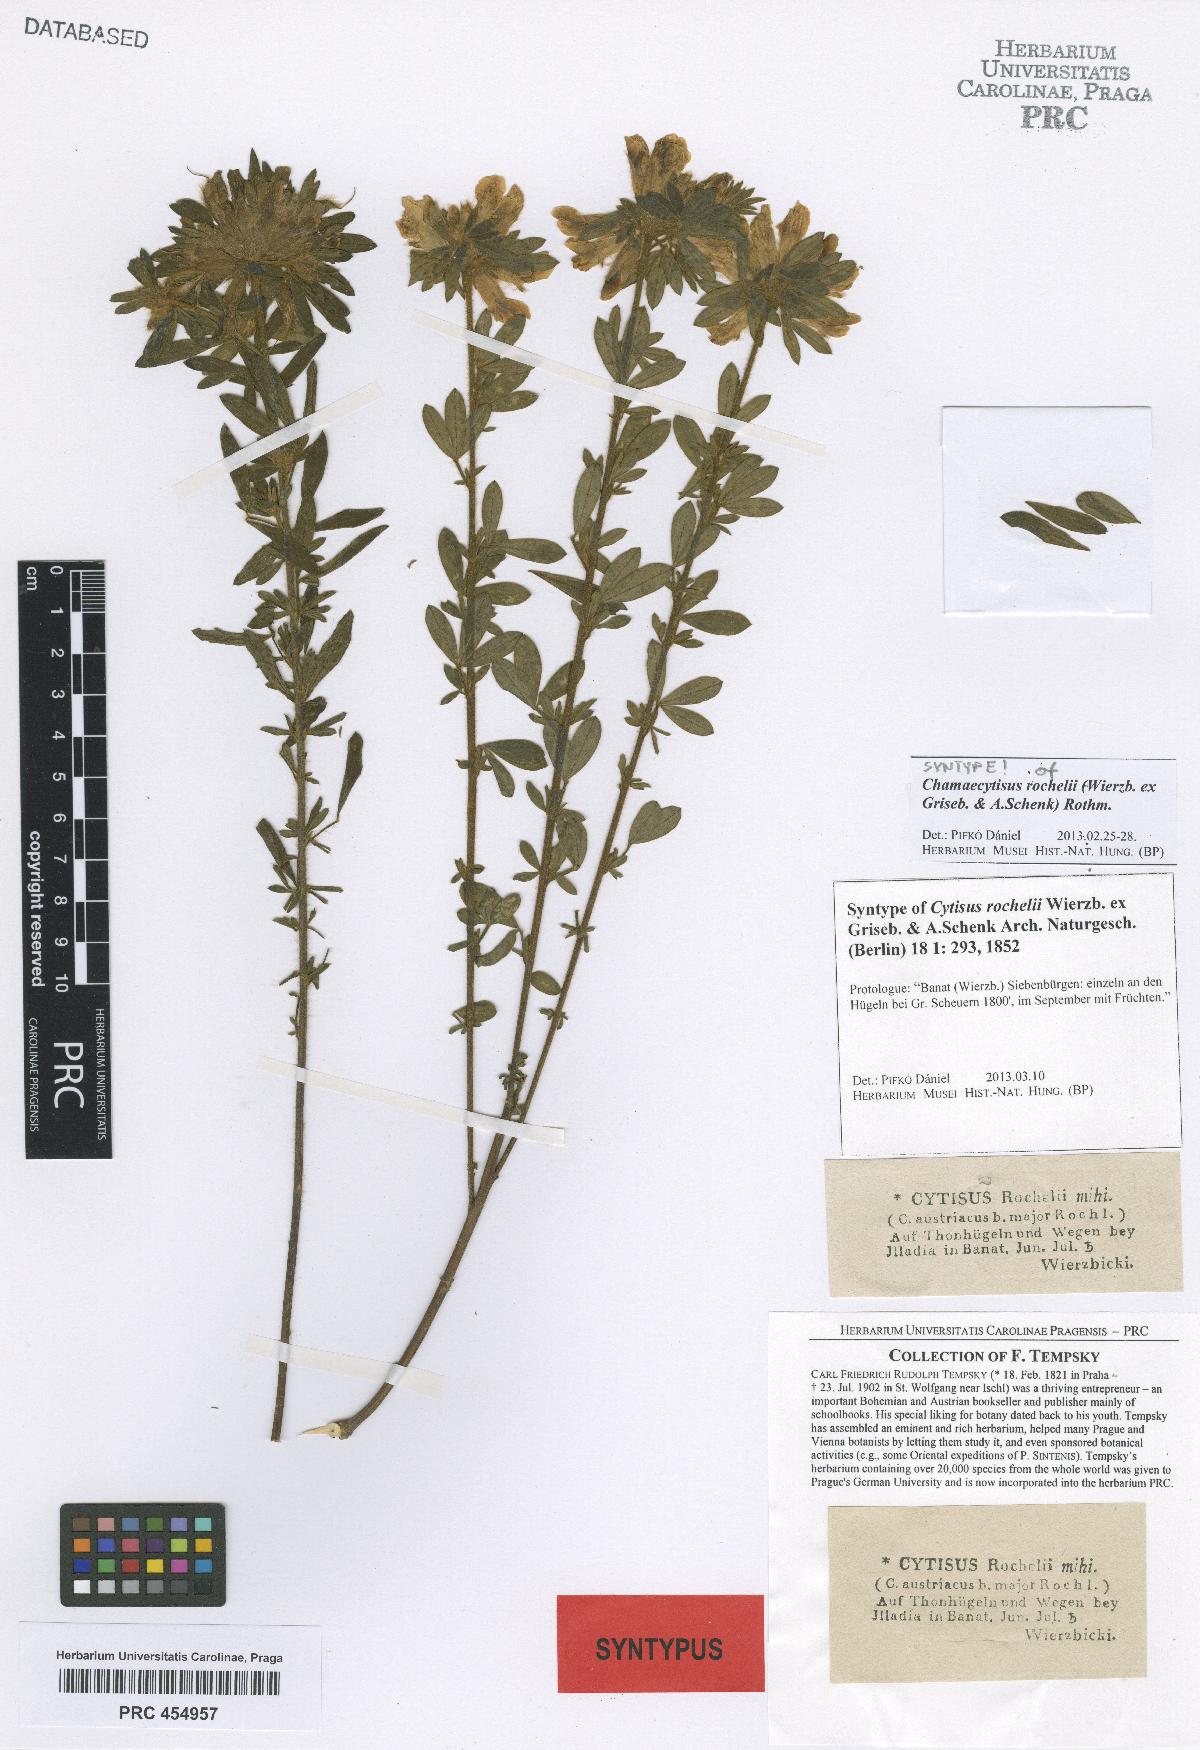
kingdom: Plantae
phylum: Tracheophyta
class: Magnoliopsida
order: Fabales
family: Fabaceae
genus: Chamaecytisus
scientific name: Chamaecytisus austriacus
